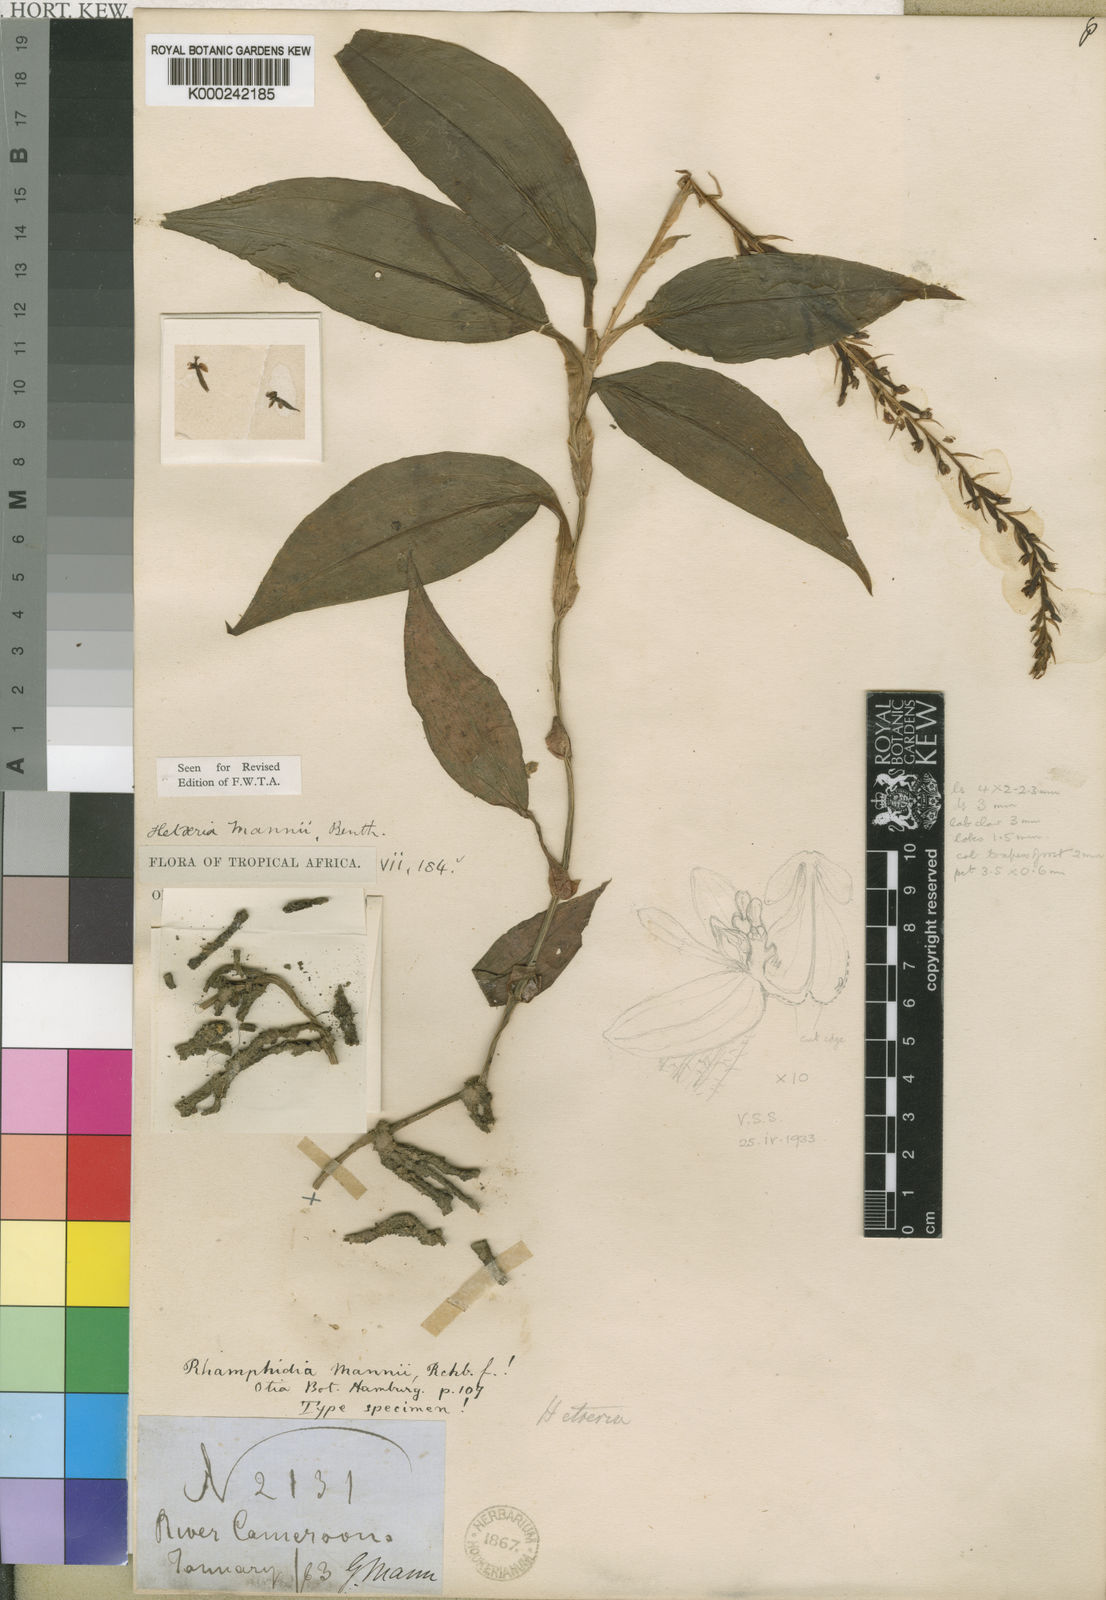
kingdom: Plantae
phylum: Tracheophyta
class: Liliopsida
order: Asparagales
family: Orchidaceae
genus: Hetaeria
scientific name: Hetaeria mannii
